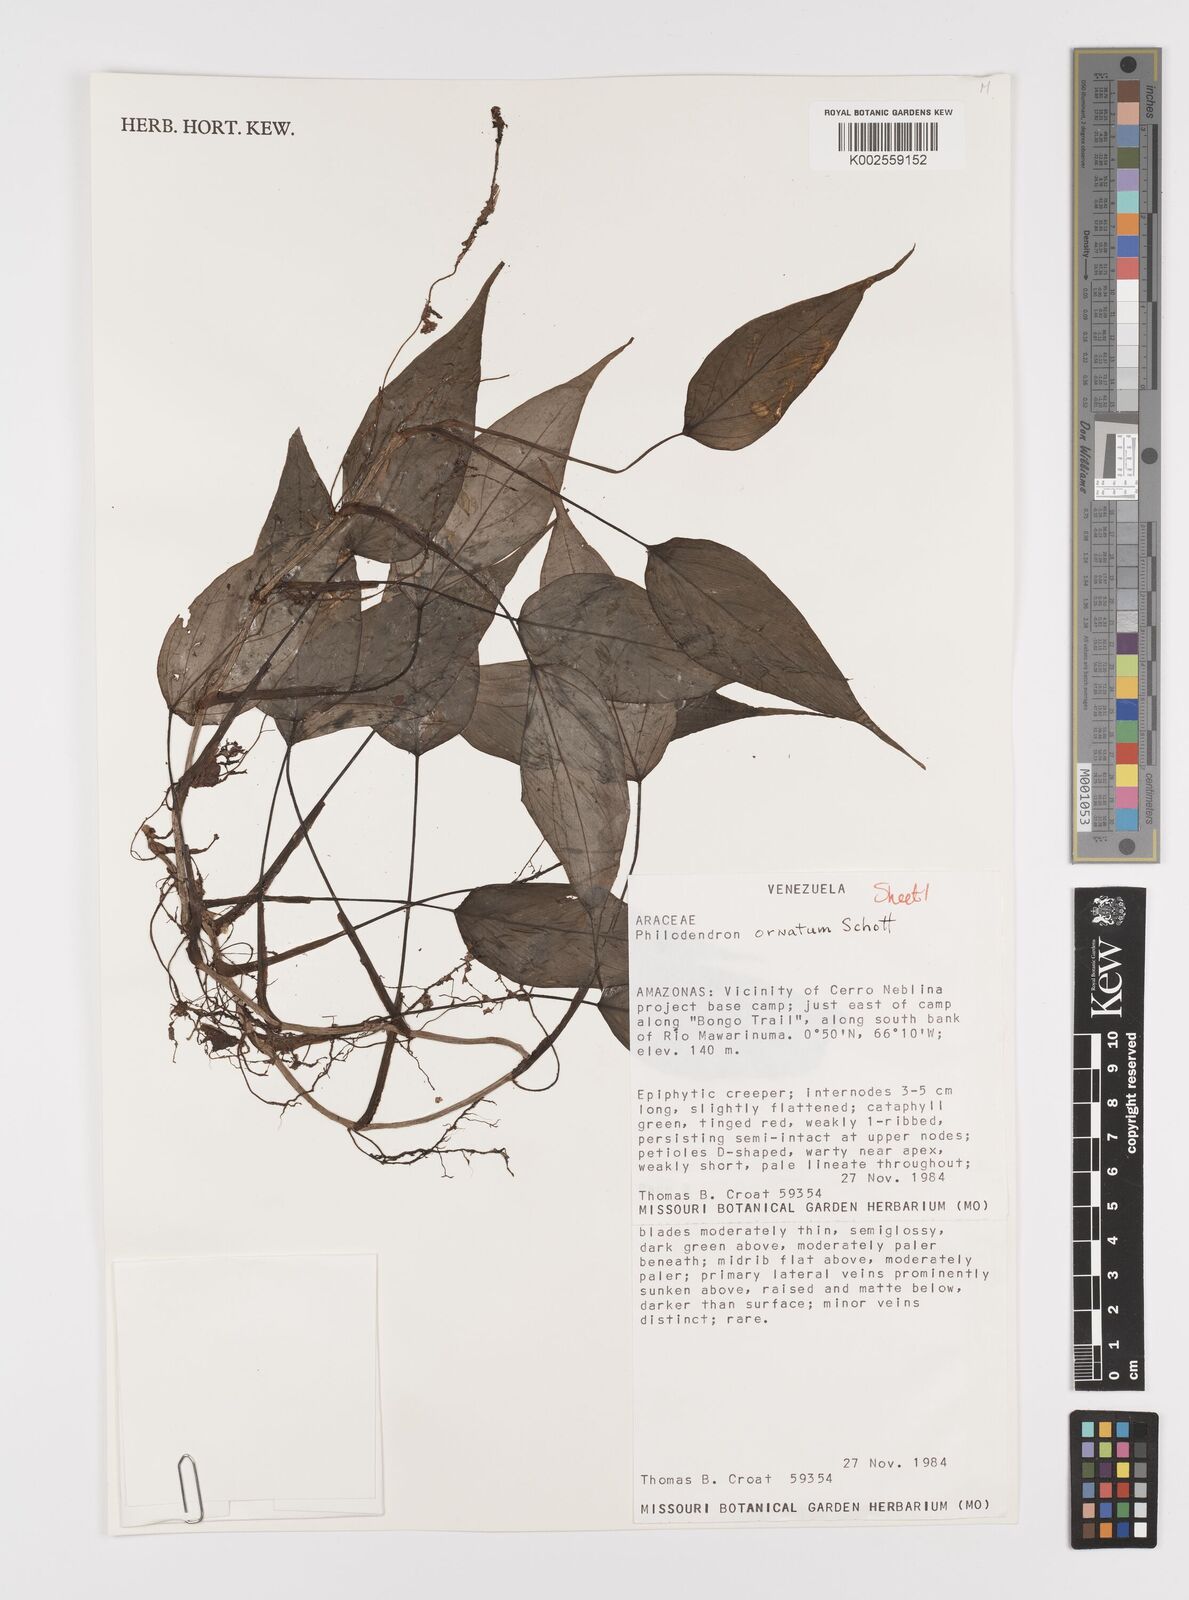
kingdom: Plantae
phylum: Tracheophyta
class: Liliopsida
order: Alismatales
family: Araceae
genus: Philodendron
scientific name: Philodendron ornatum
